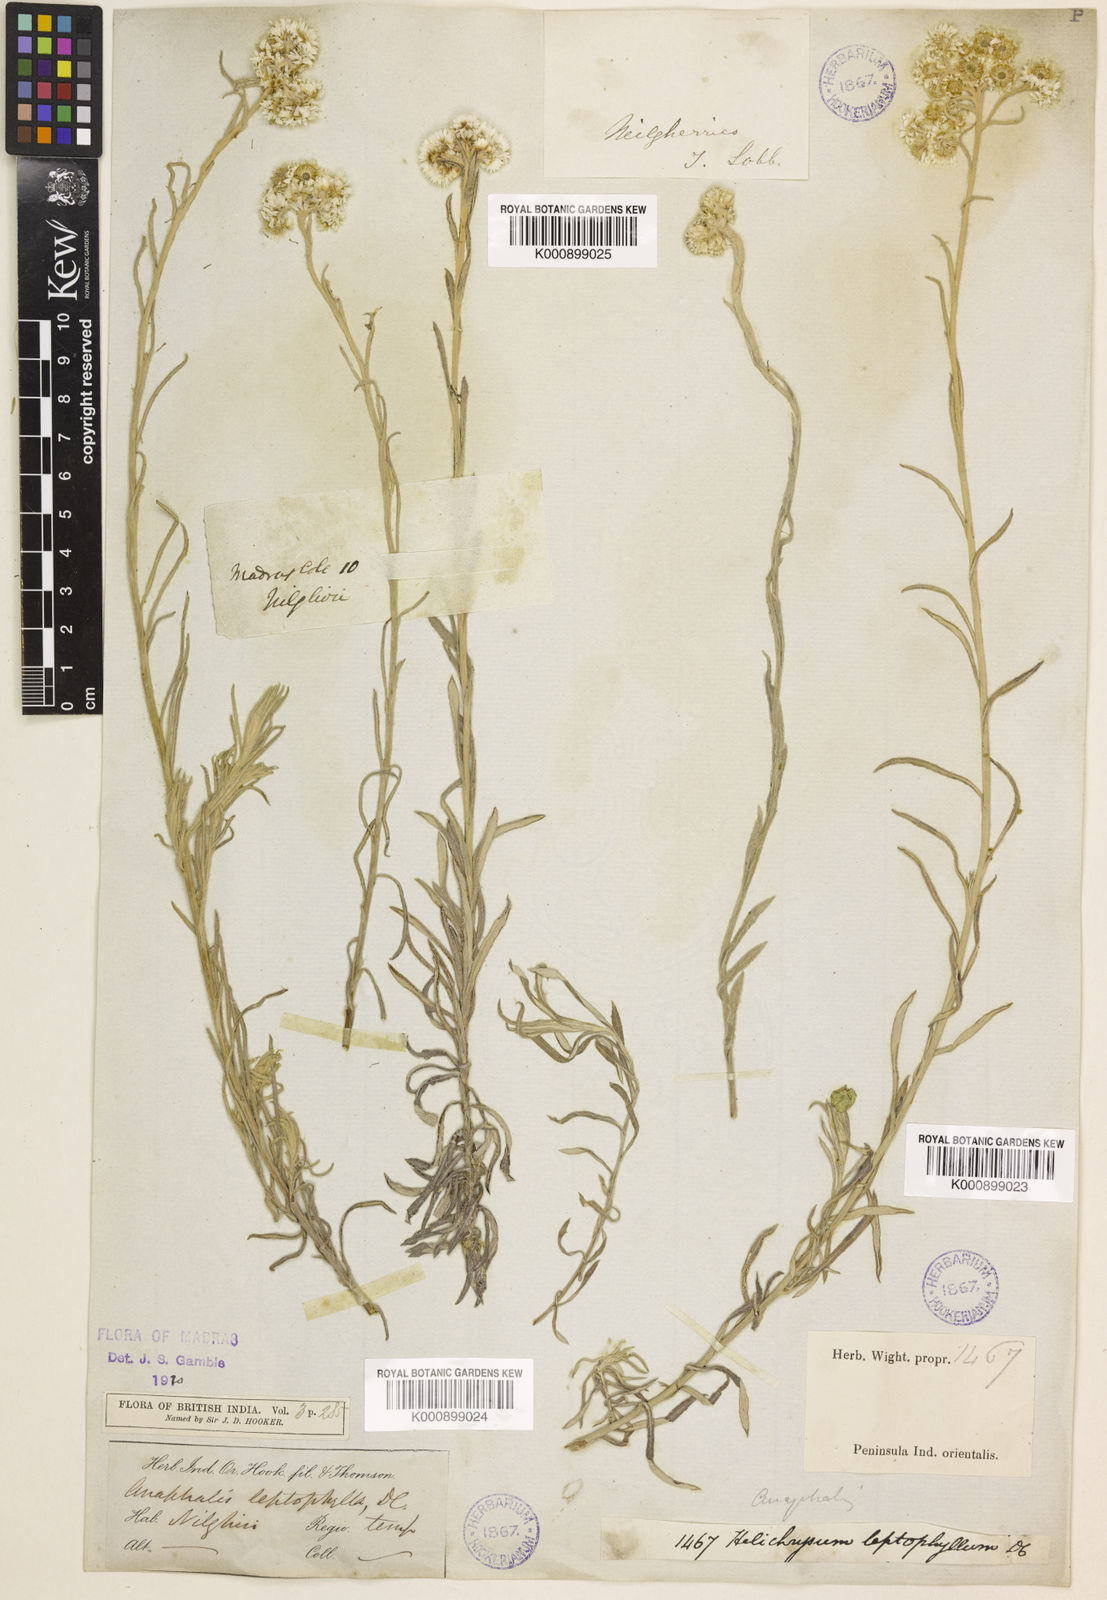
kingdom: Plantae
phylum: Tracheophyta
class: Magnoliopsida
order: Asterales
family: Asteraceae
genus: Anaphalis
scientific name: Anaphalis leptophylla
